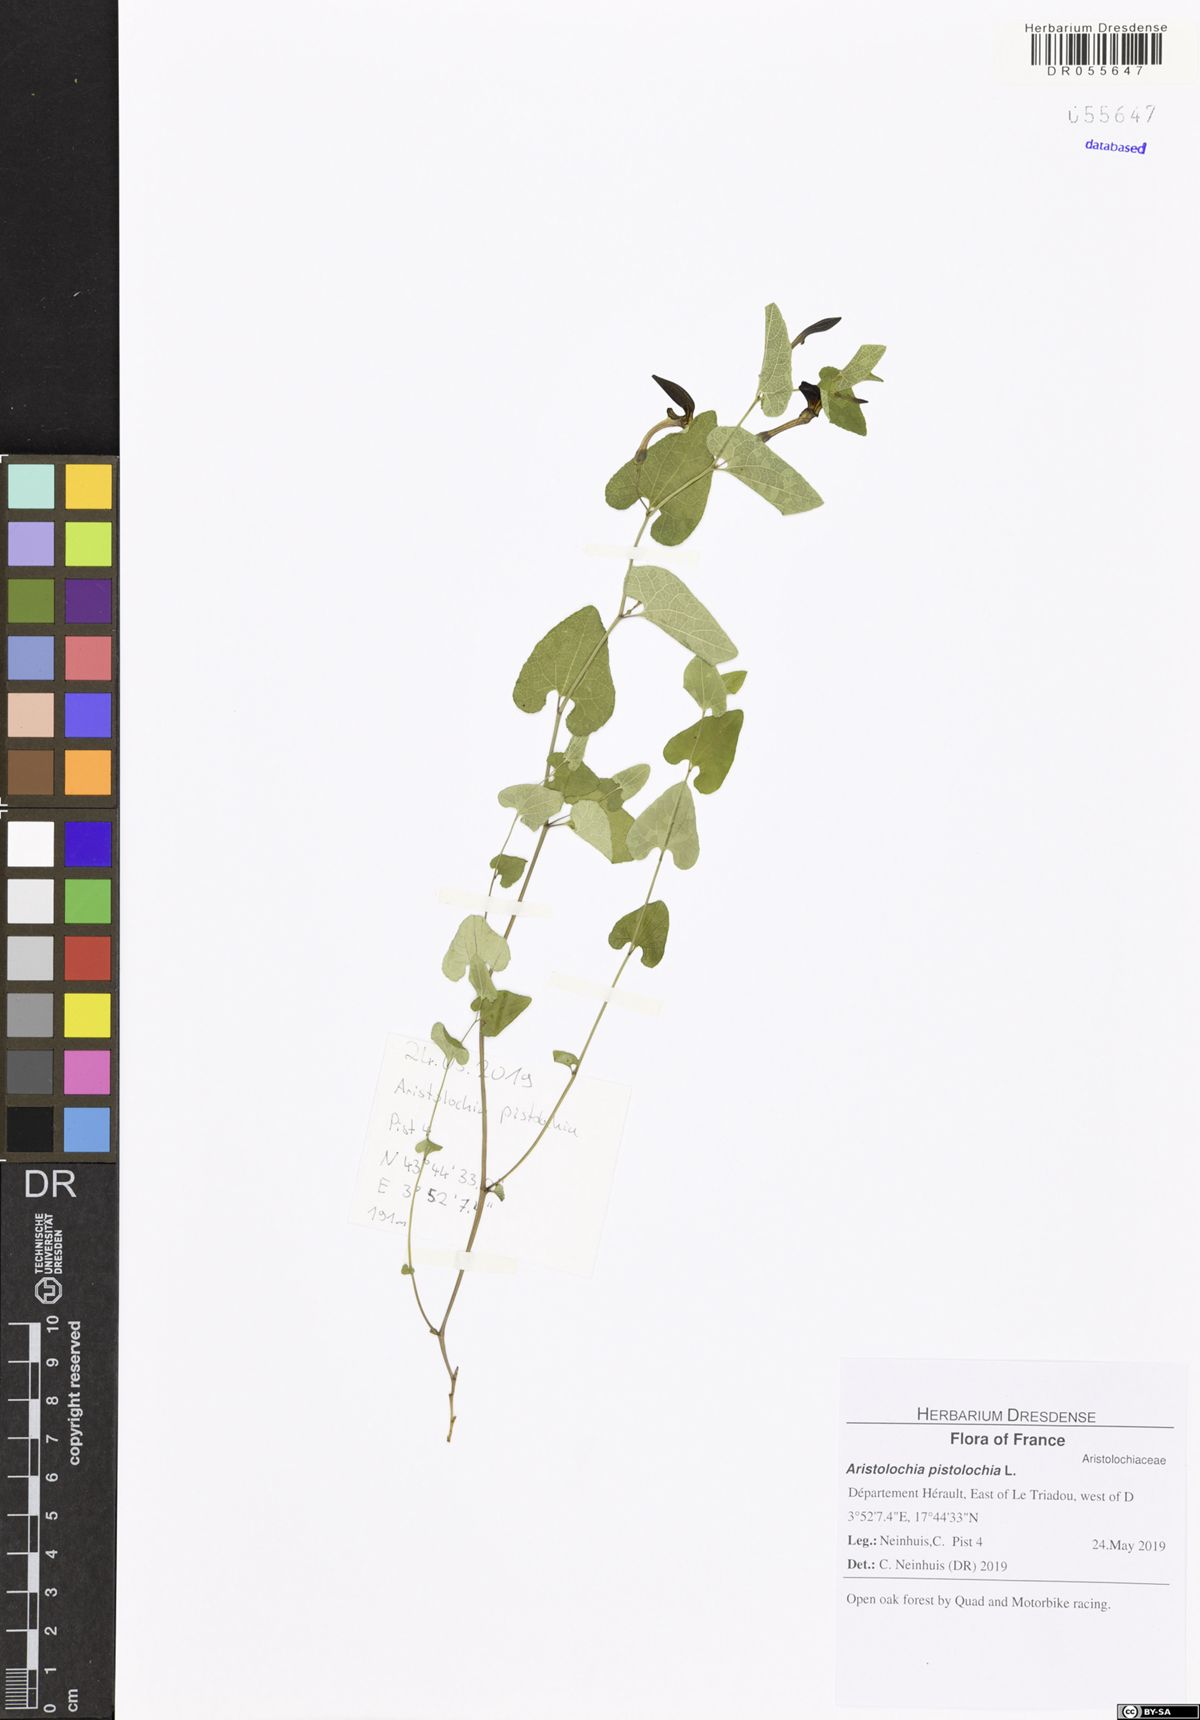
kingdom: Plantae
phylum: Tracheophyta
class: Magnoliopsida
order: Piperales
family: Aristolochiaceae
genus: Aristolochia
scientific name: Aristolochia pistolochia
